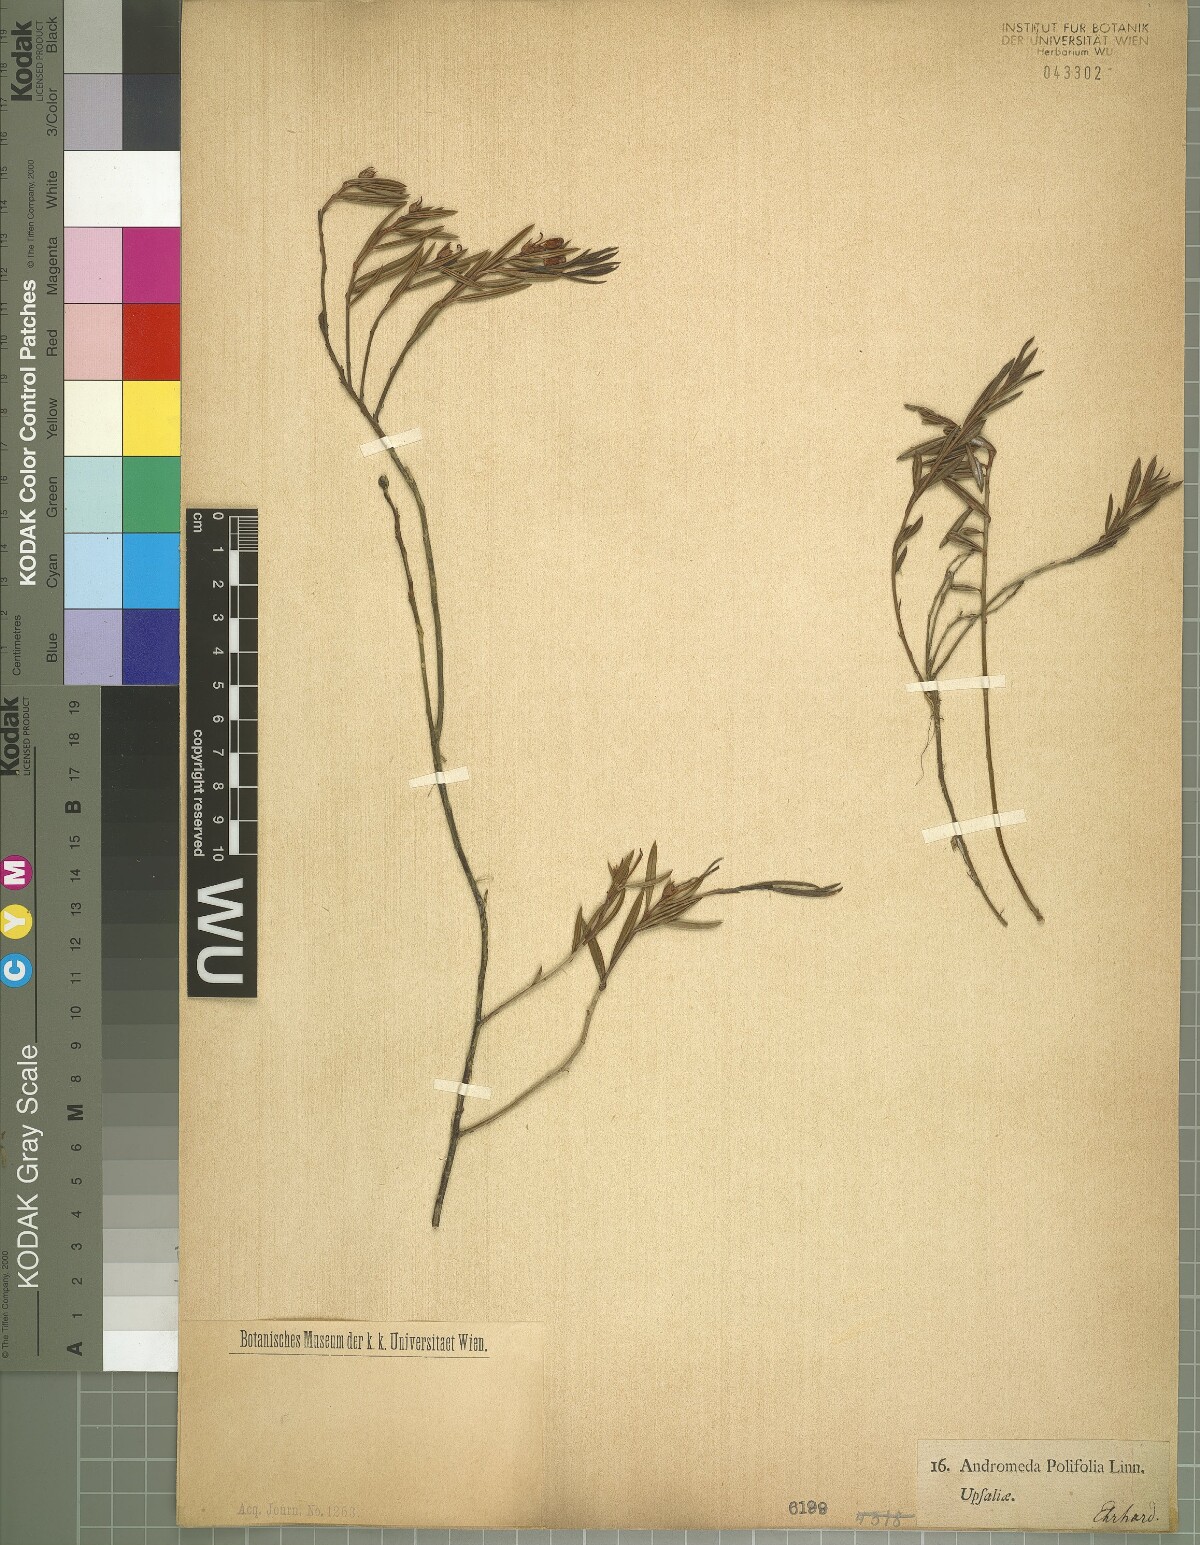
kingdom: Plantae
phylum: Tracheophyta
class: Magnoliopsida
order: Ericales
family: Ericaceae
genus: Andromeda
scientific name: Andromeda polifolia
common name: Bog-rosemary
